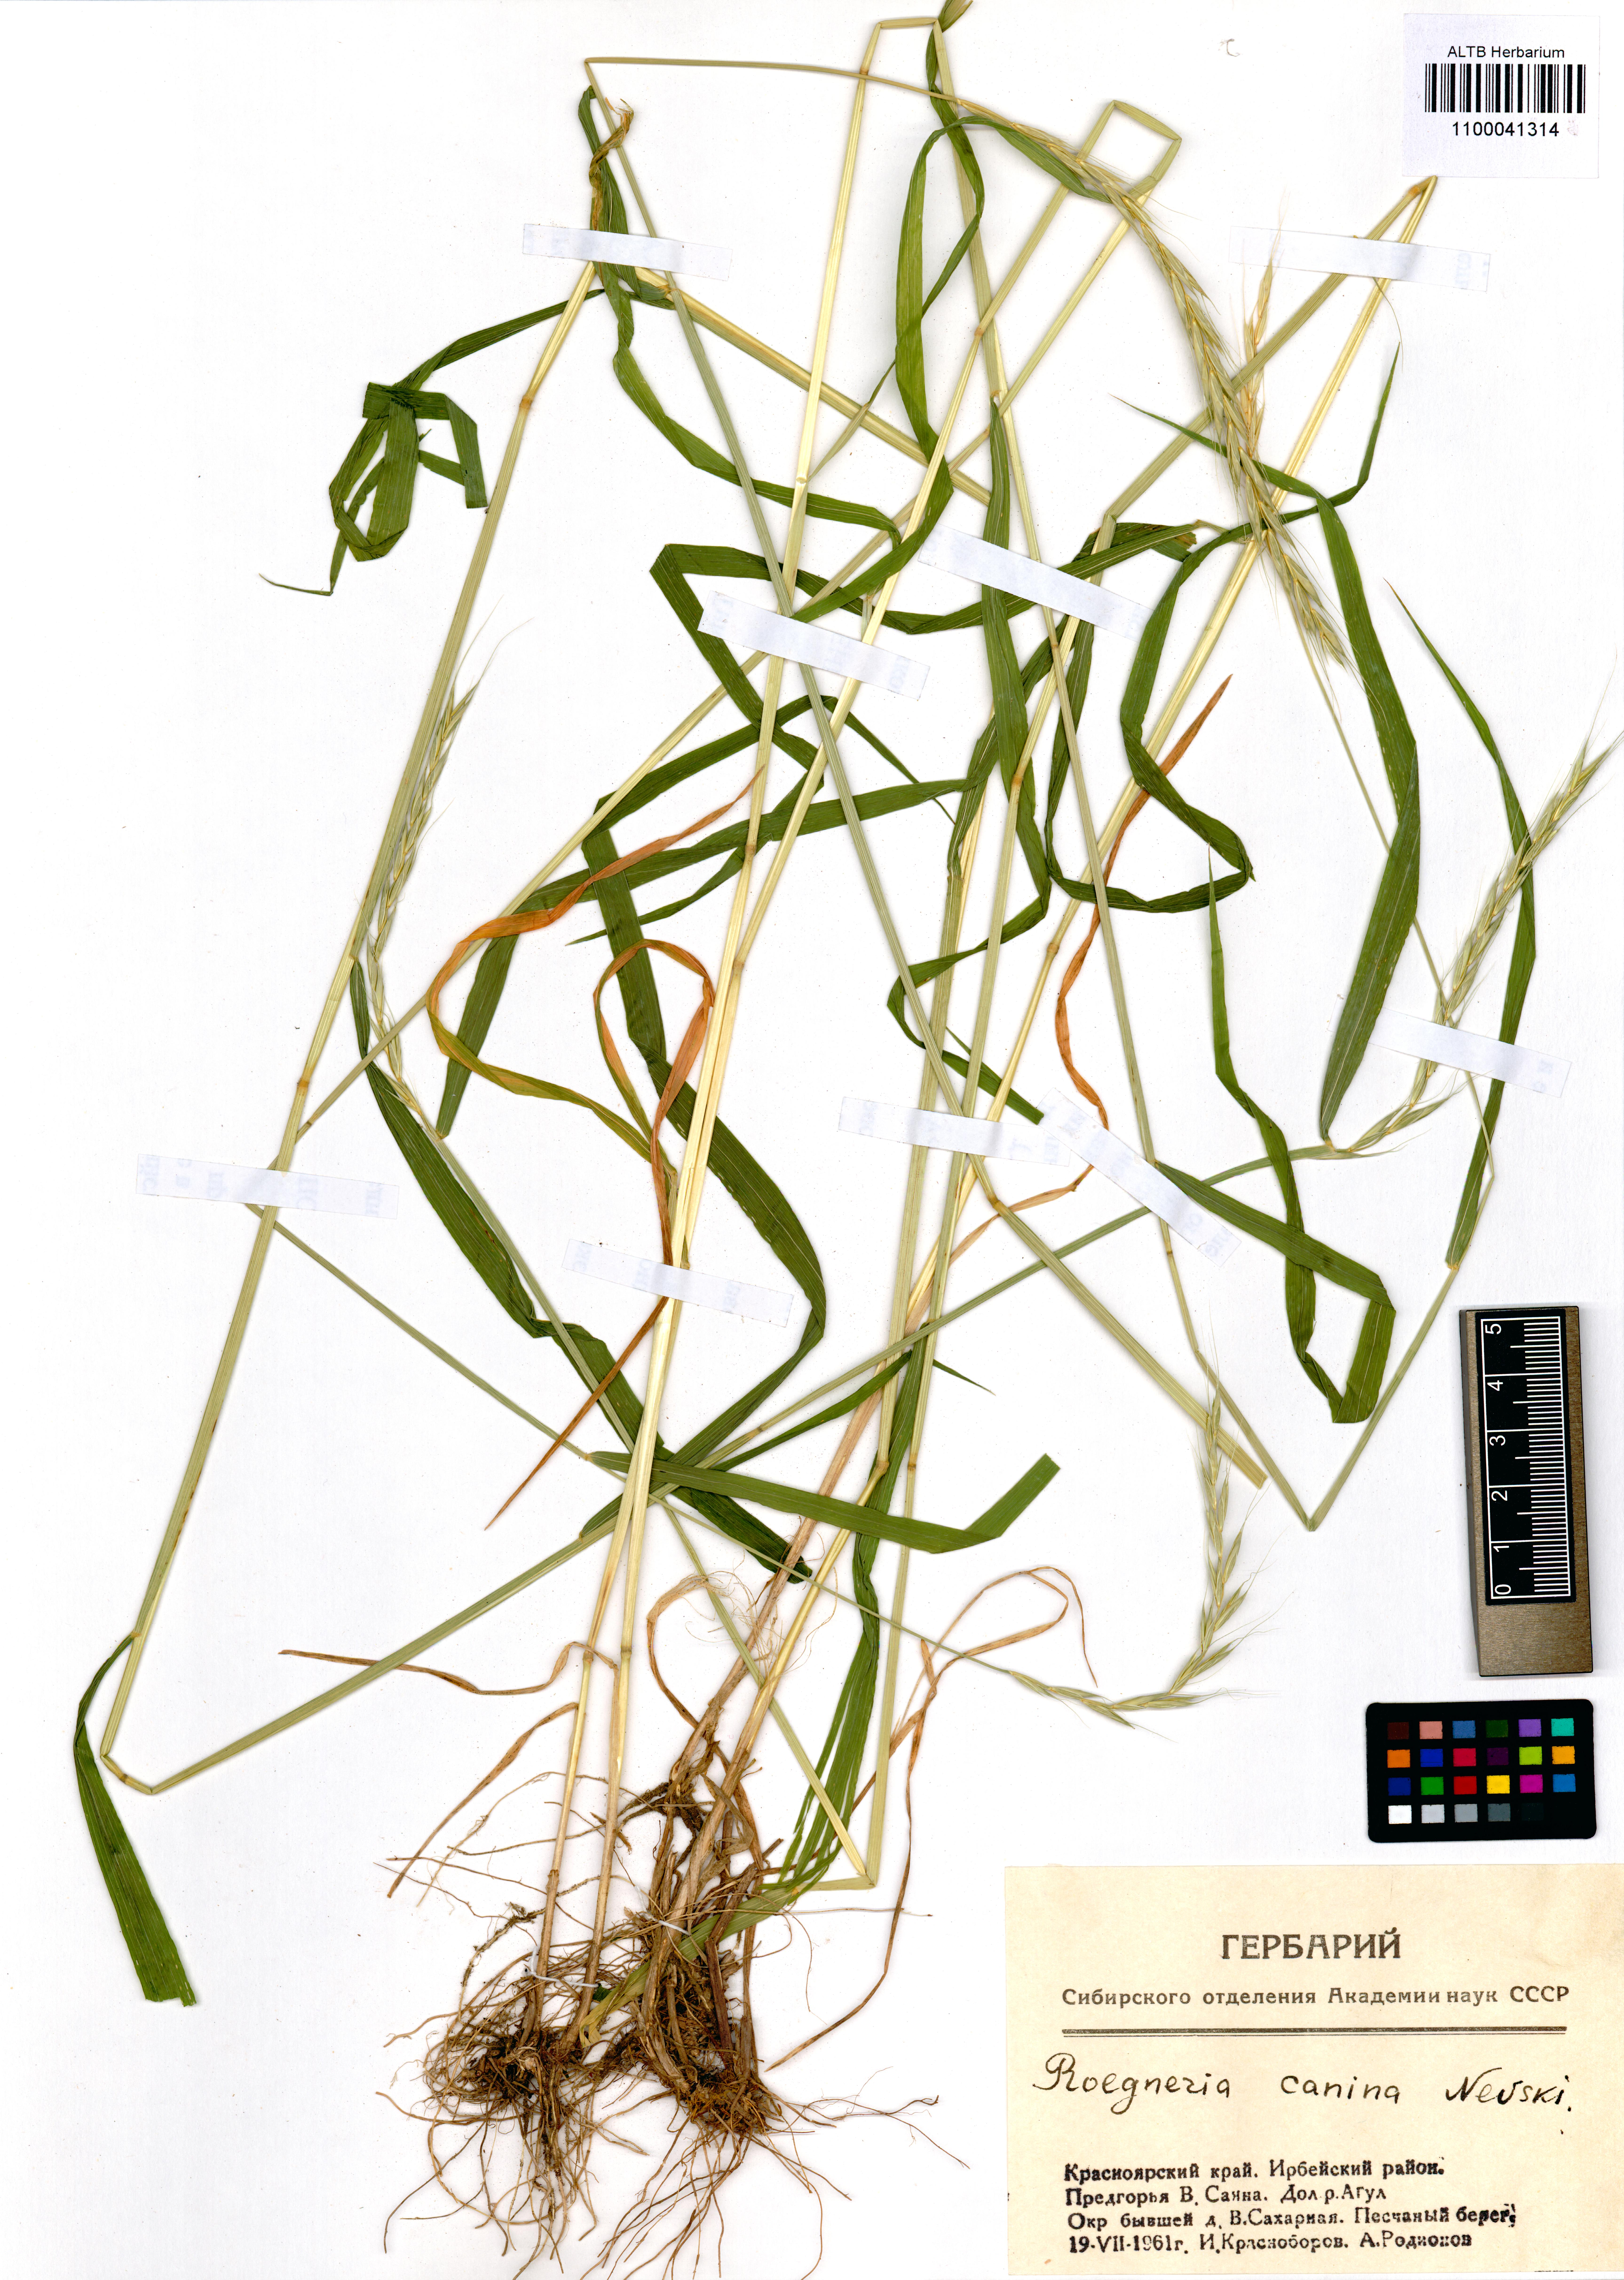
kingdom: Plantae
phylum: Tracheophyta
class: Liliopsida
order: Poales
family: Poaceae
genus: Elymus
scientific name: Elymus caninus
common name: Bearded couch
